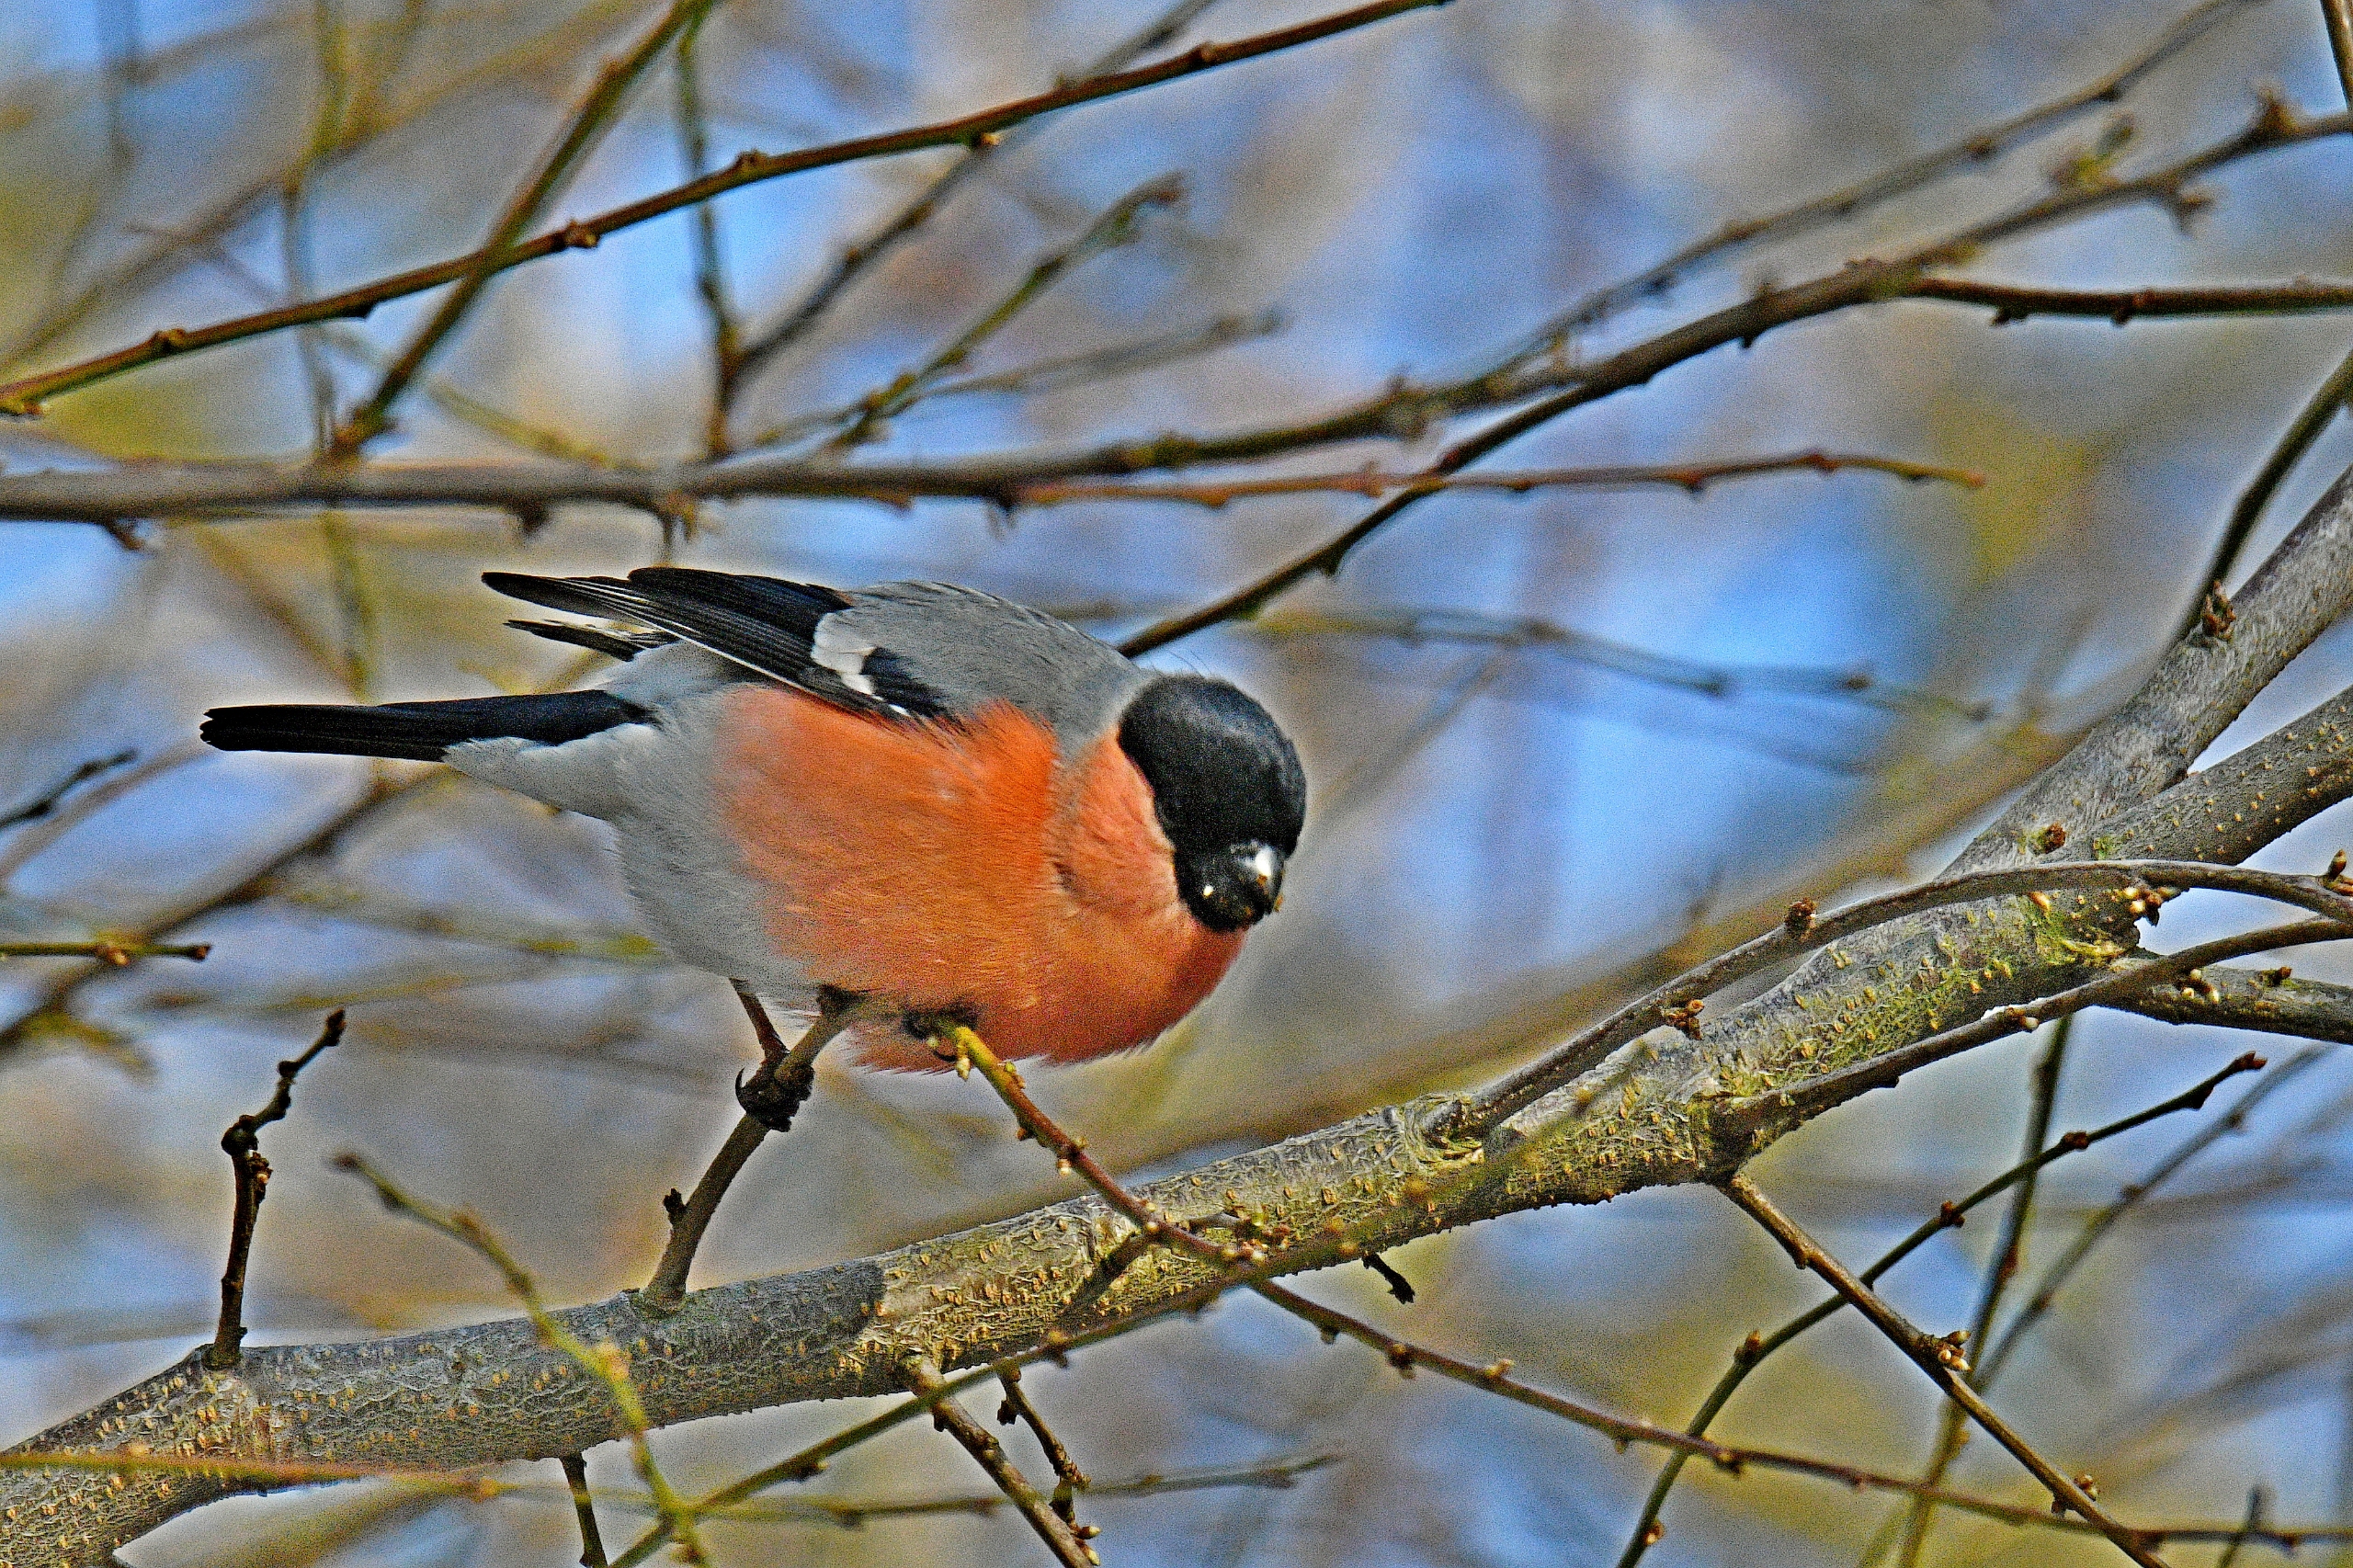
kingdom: Animalia
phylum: Chordata
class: Aves
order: Passeriformes
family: Fringillidae
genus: Pyrrhula
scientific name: Pyrrhula pyrrhula
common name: Dompap
